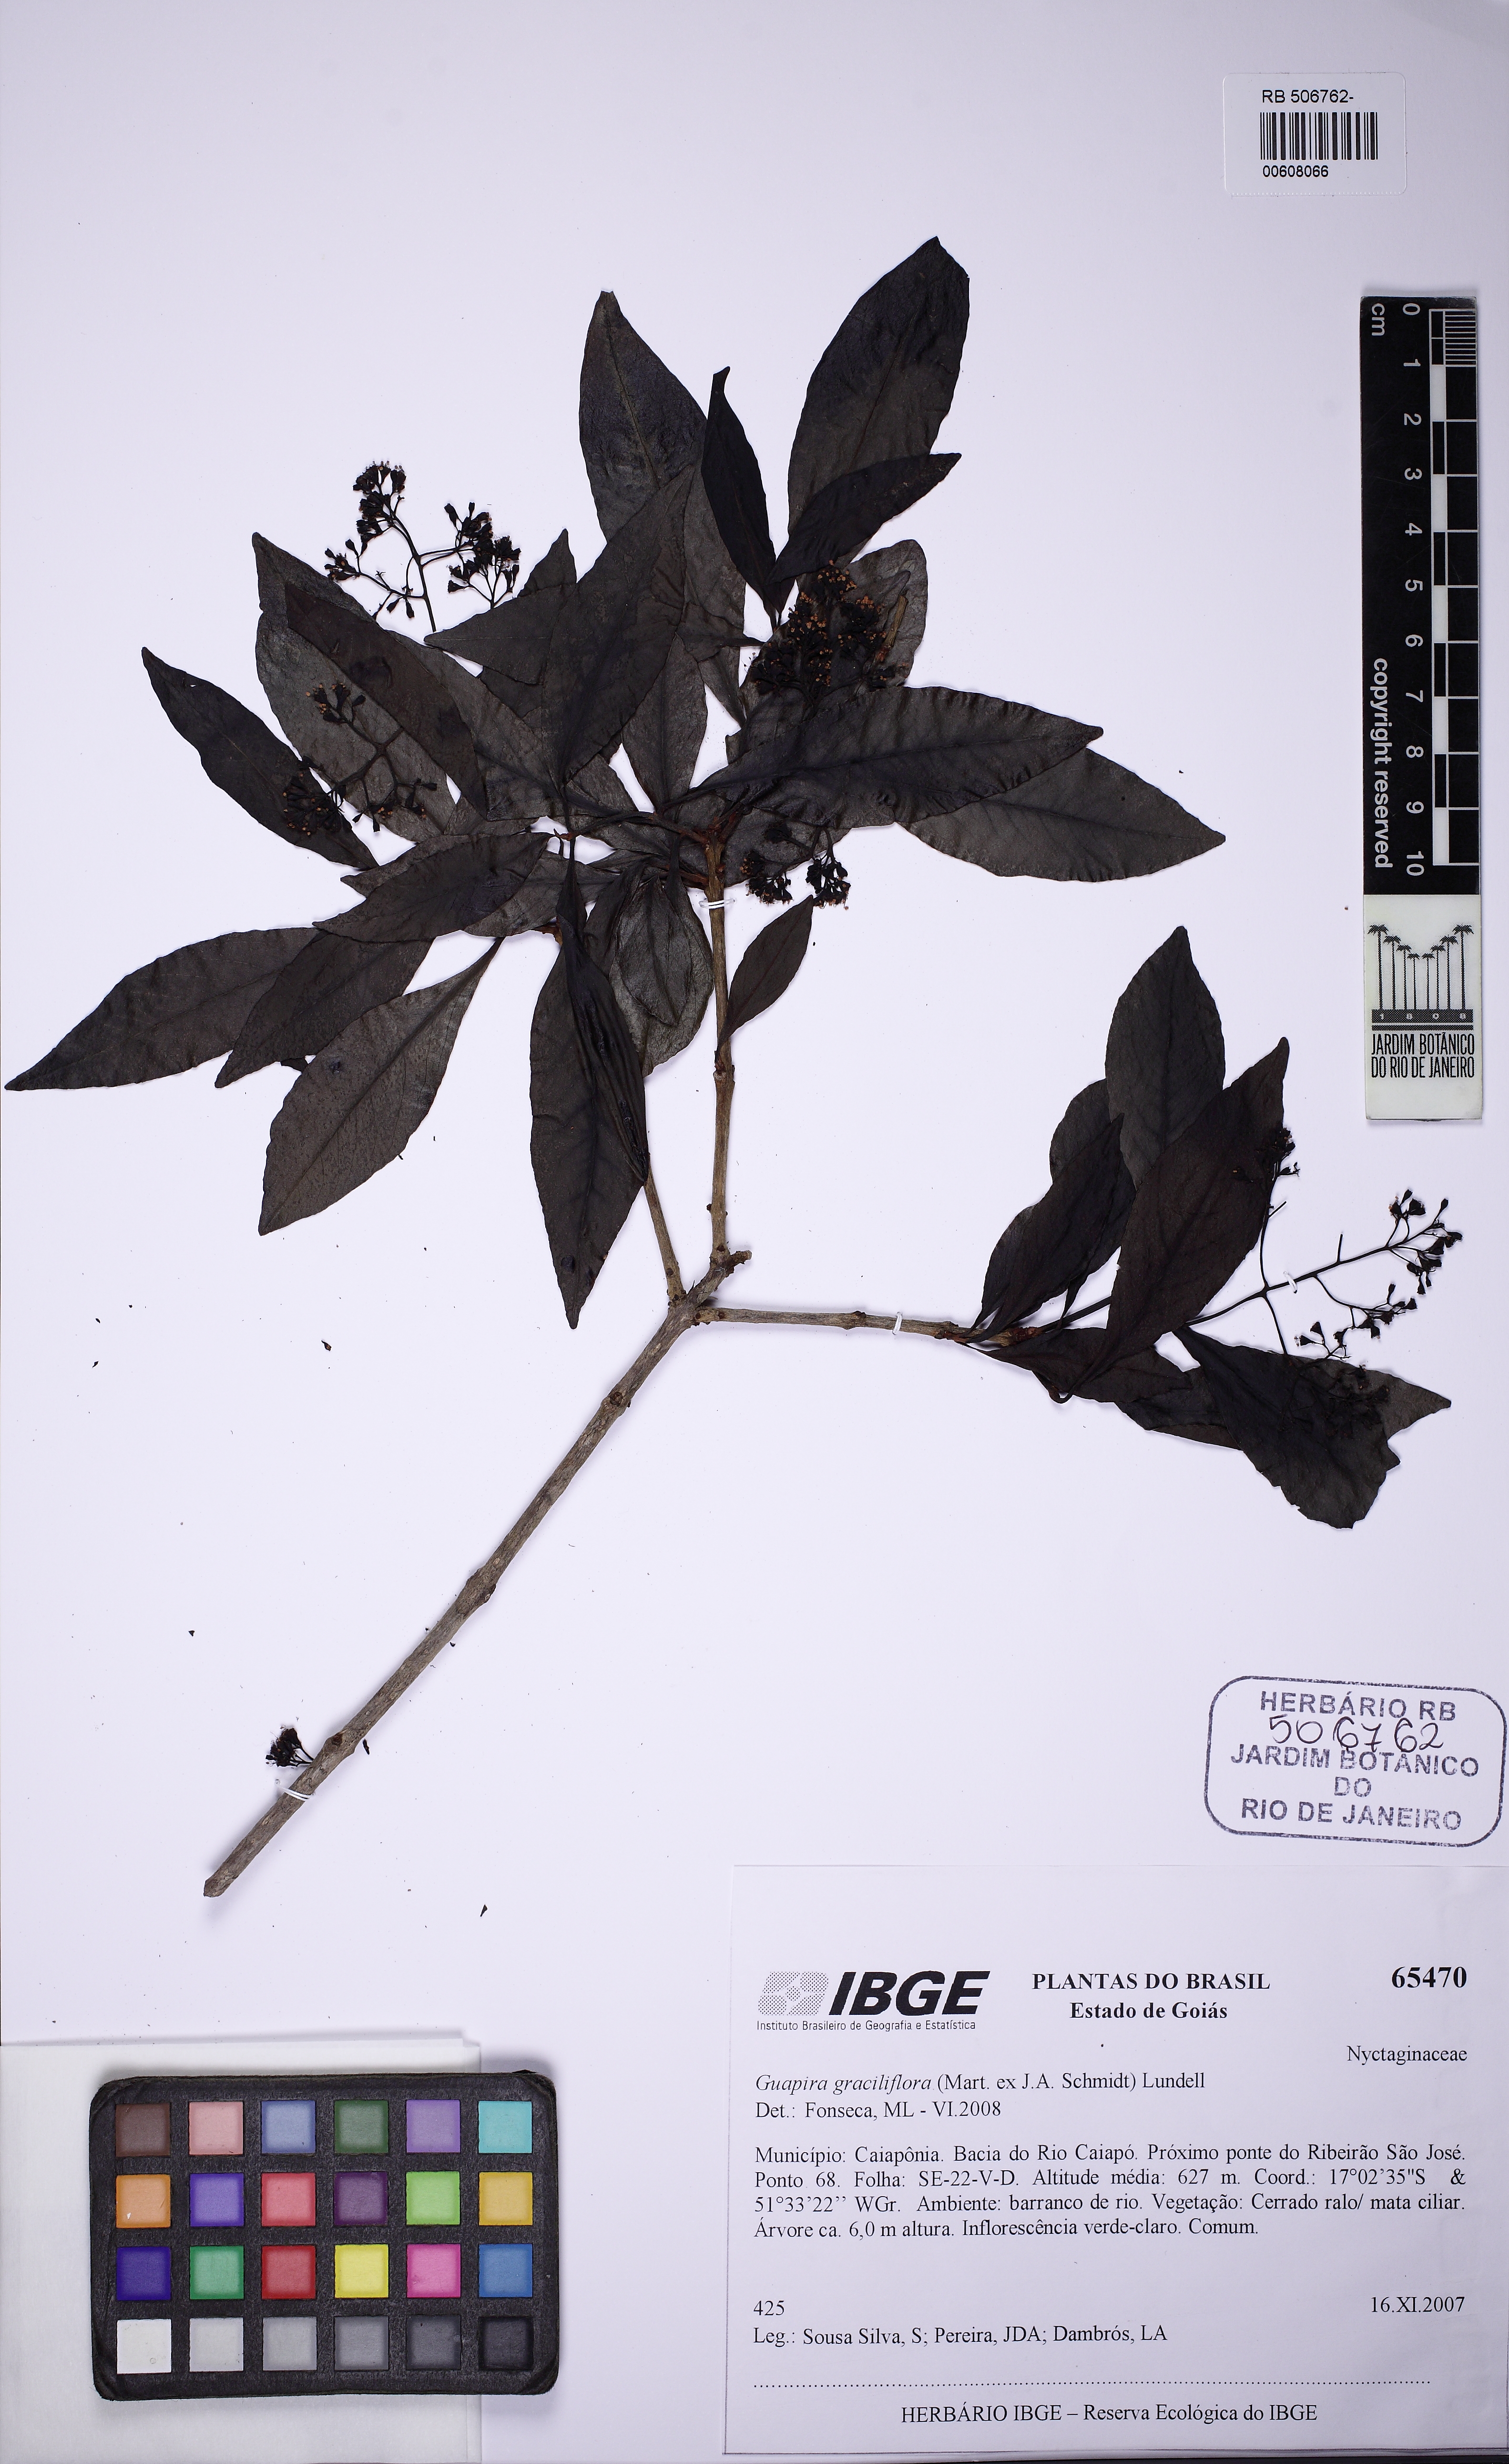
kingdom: Plantae
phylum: Tracheophyta
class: Magnoliopsida
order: Caryophyllales
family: Nyctaginaceae
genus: Guapira
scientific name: Guapira graciliflora
